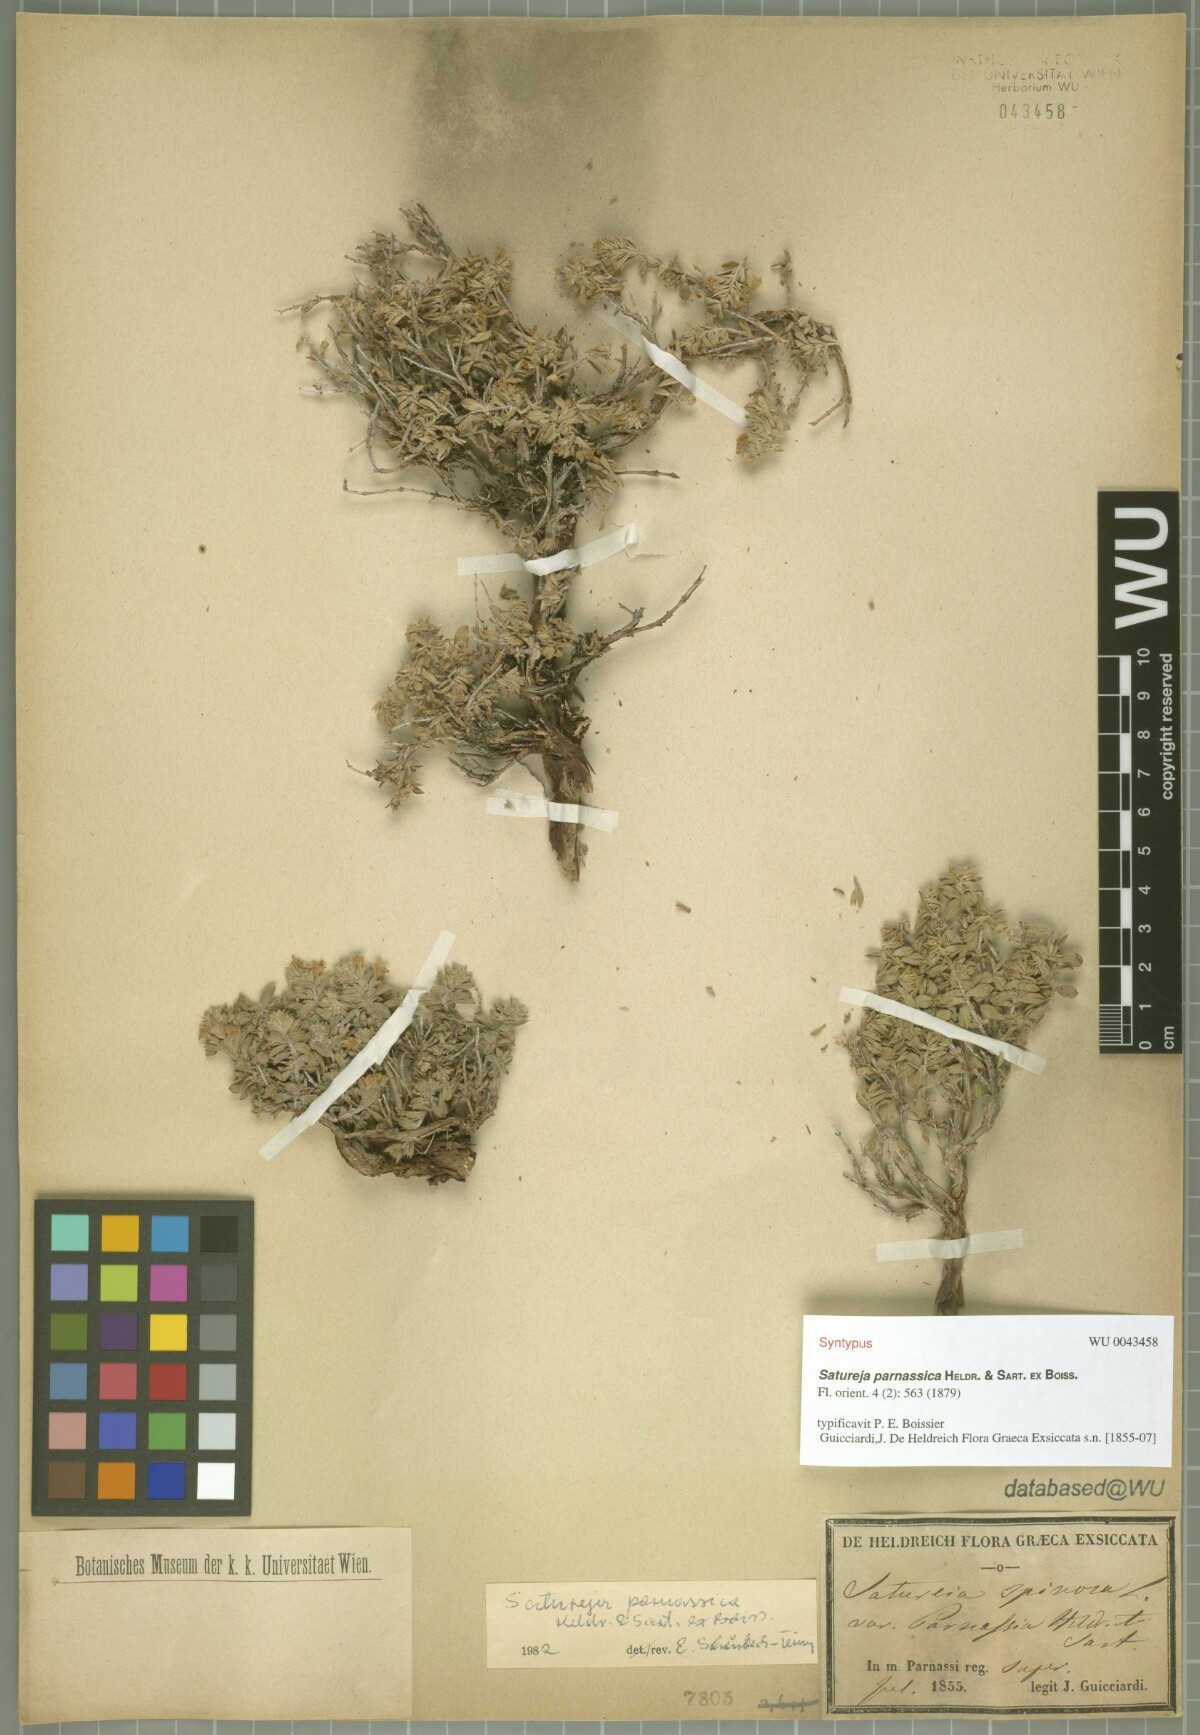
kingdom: Plantae
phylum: Tracheophyta
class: Magnoliopsida
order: Lamiales
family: Lamiaceae
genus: Satureja
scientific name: Satureja parnassica
